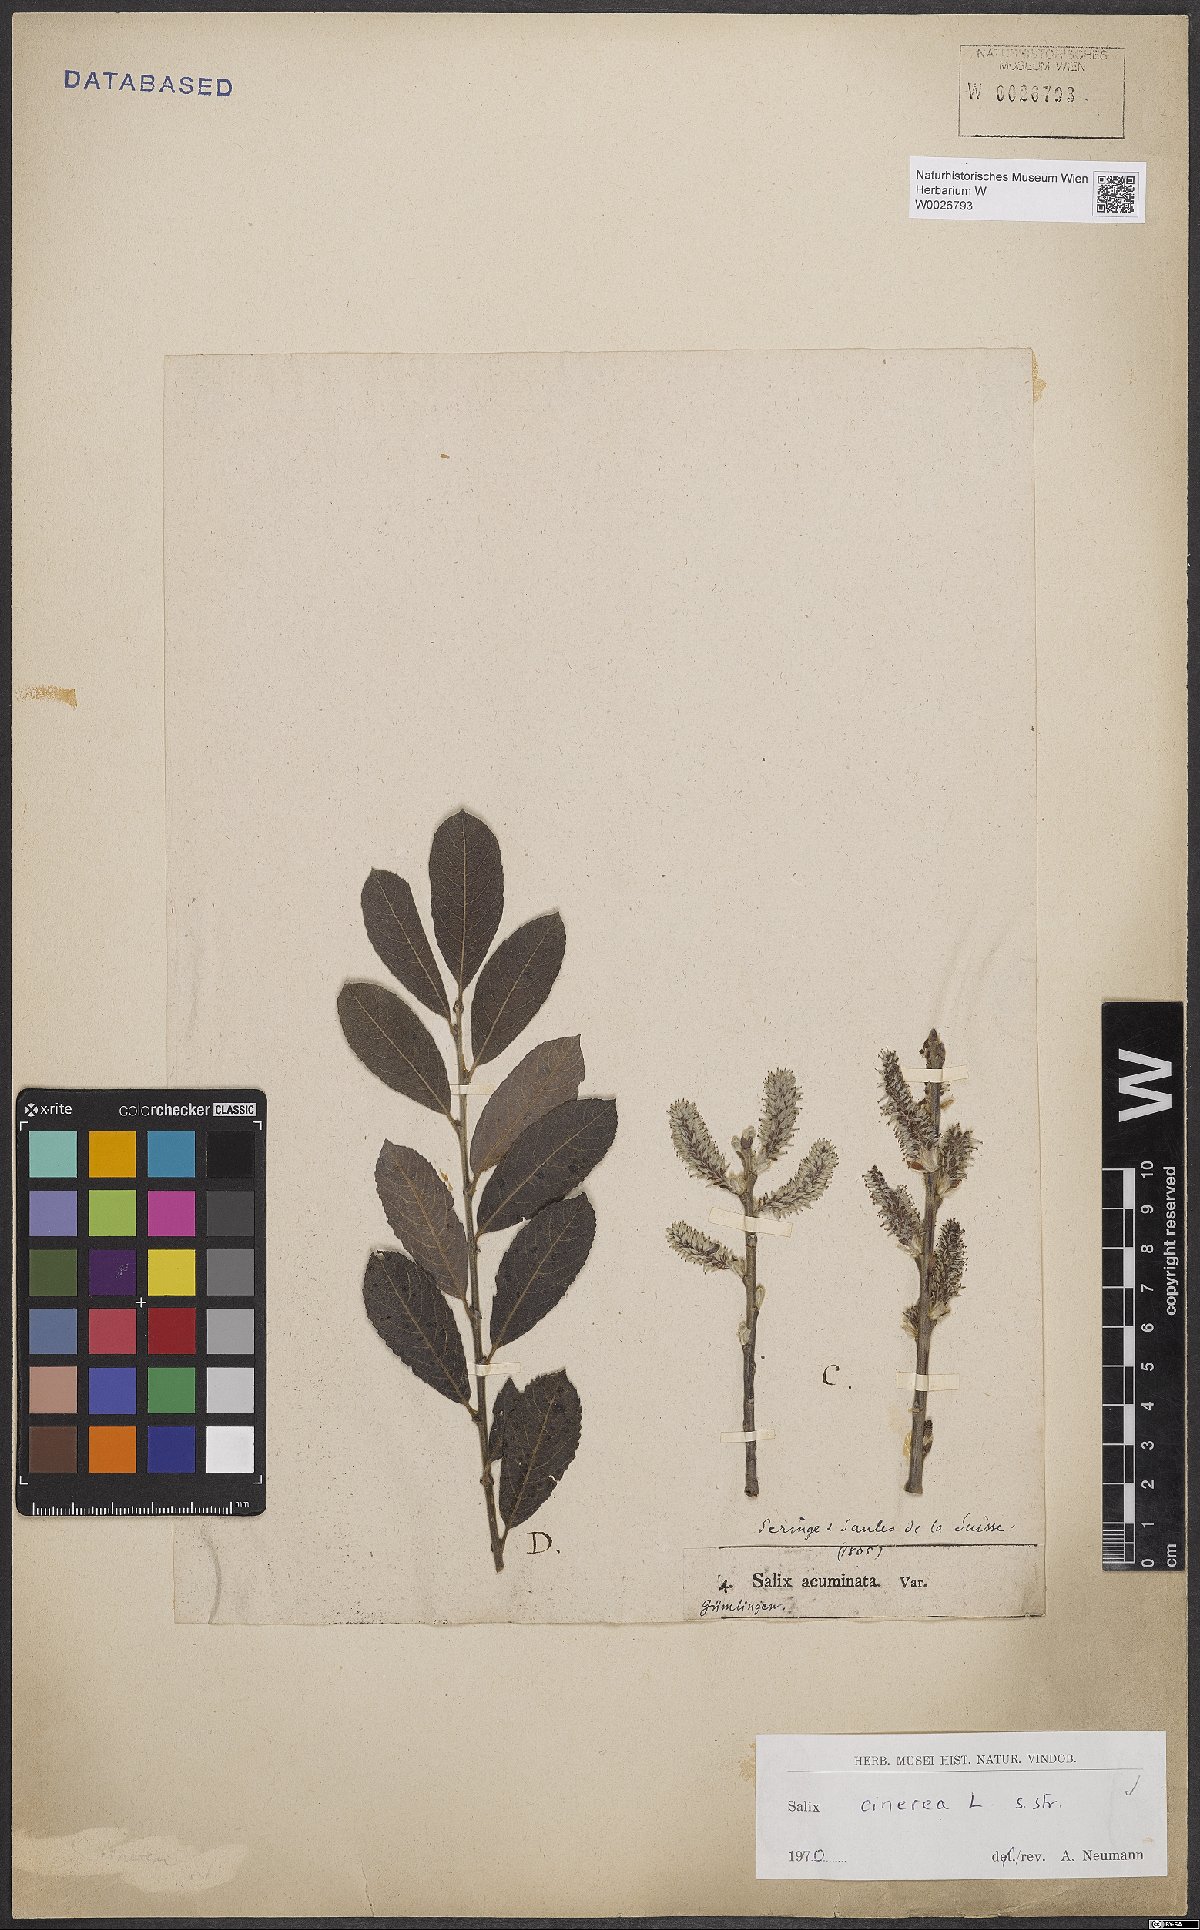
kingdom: Plantae
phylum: Tracheophyta
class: Magnoliopsida
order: Malpighiales
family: Salicaceae
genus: Salix
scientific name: Salix cinerea
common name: Common sallow
